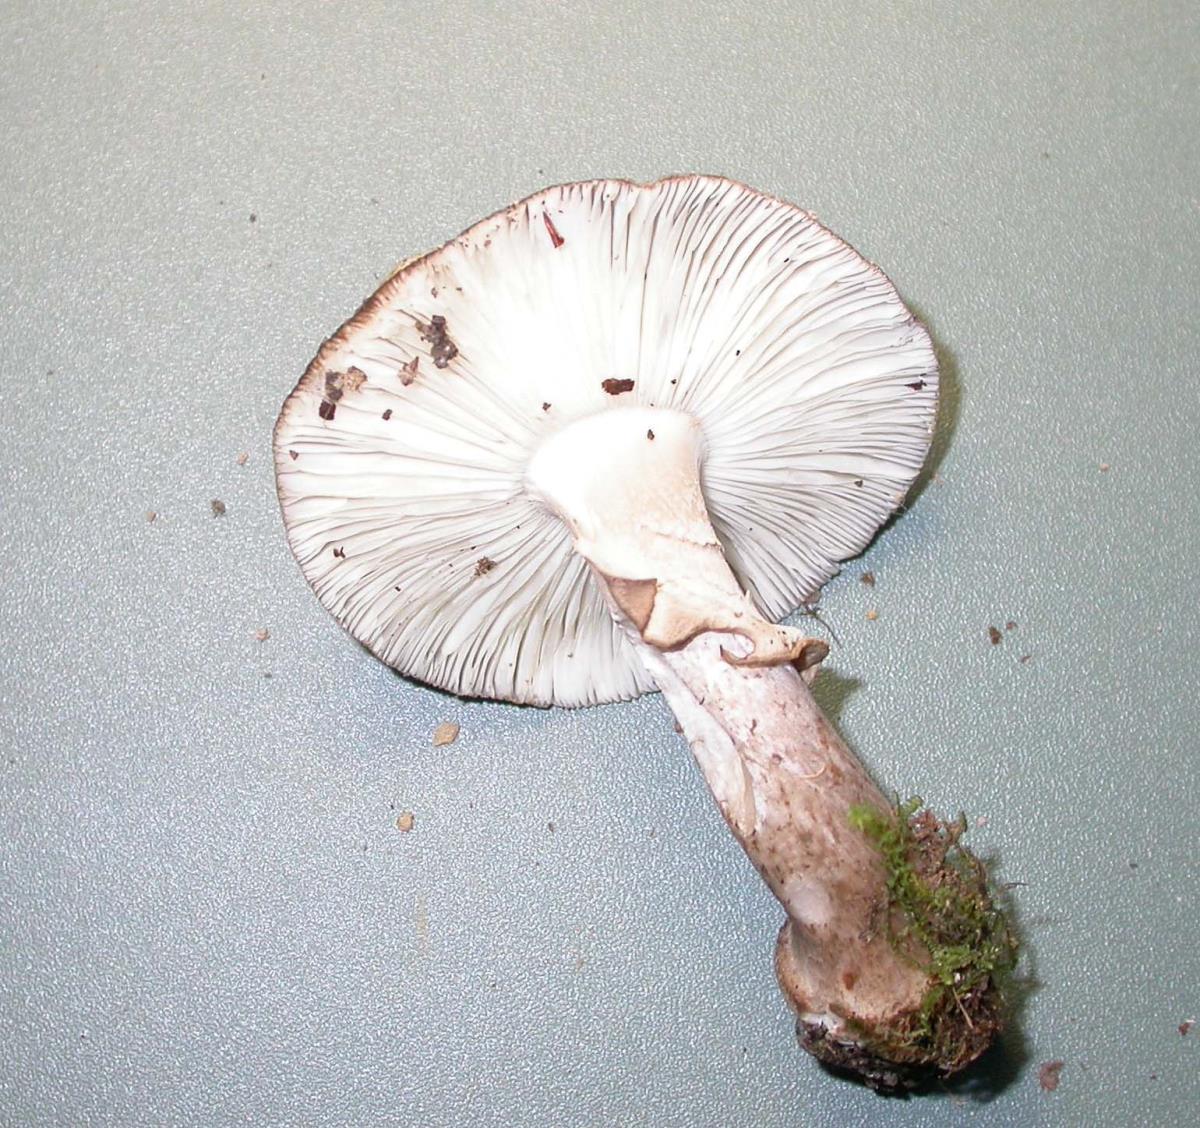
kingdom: Fungi
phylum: Basidiomycota
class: Agaricomycetes
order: Agaricales
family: Amanitaceae
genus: Amanita
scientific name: Amanita australis
